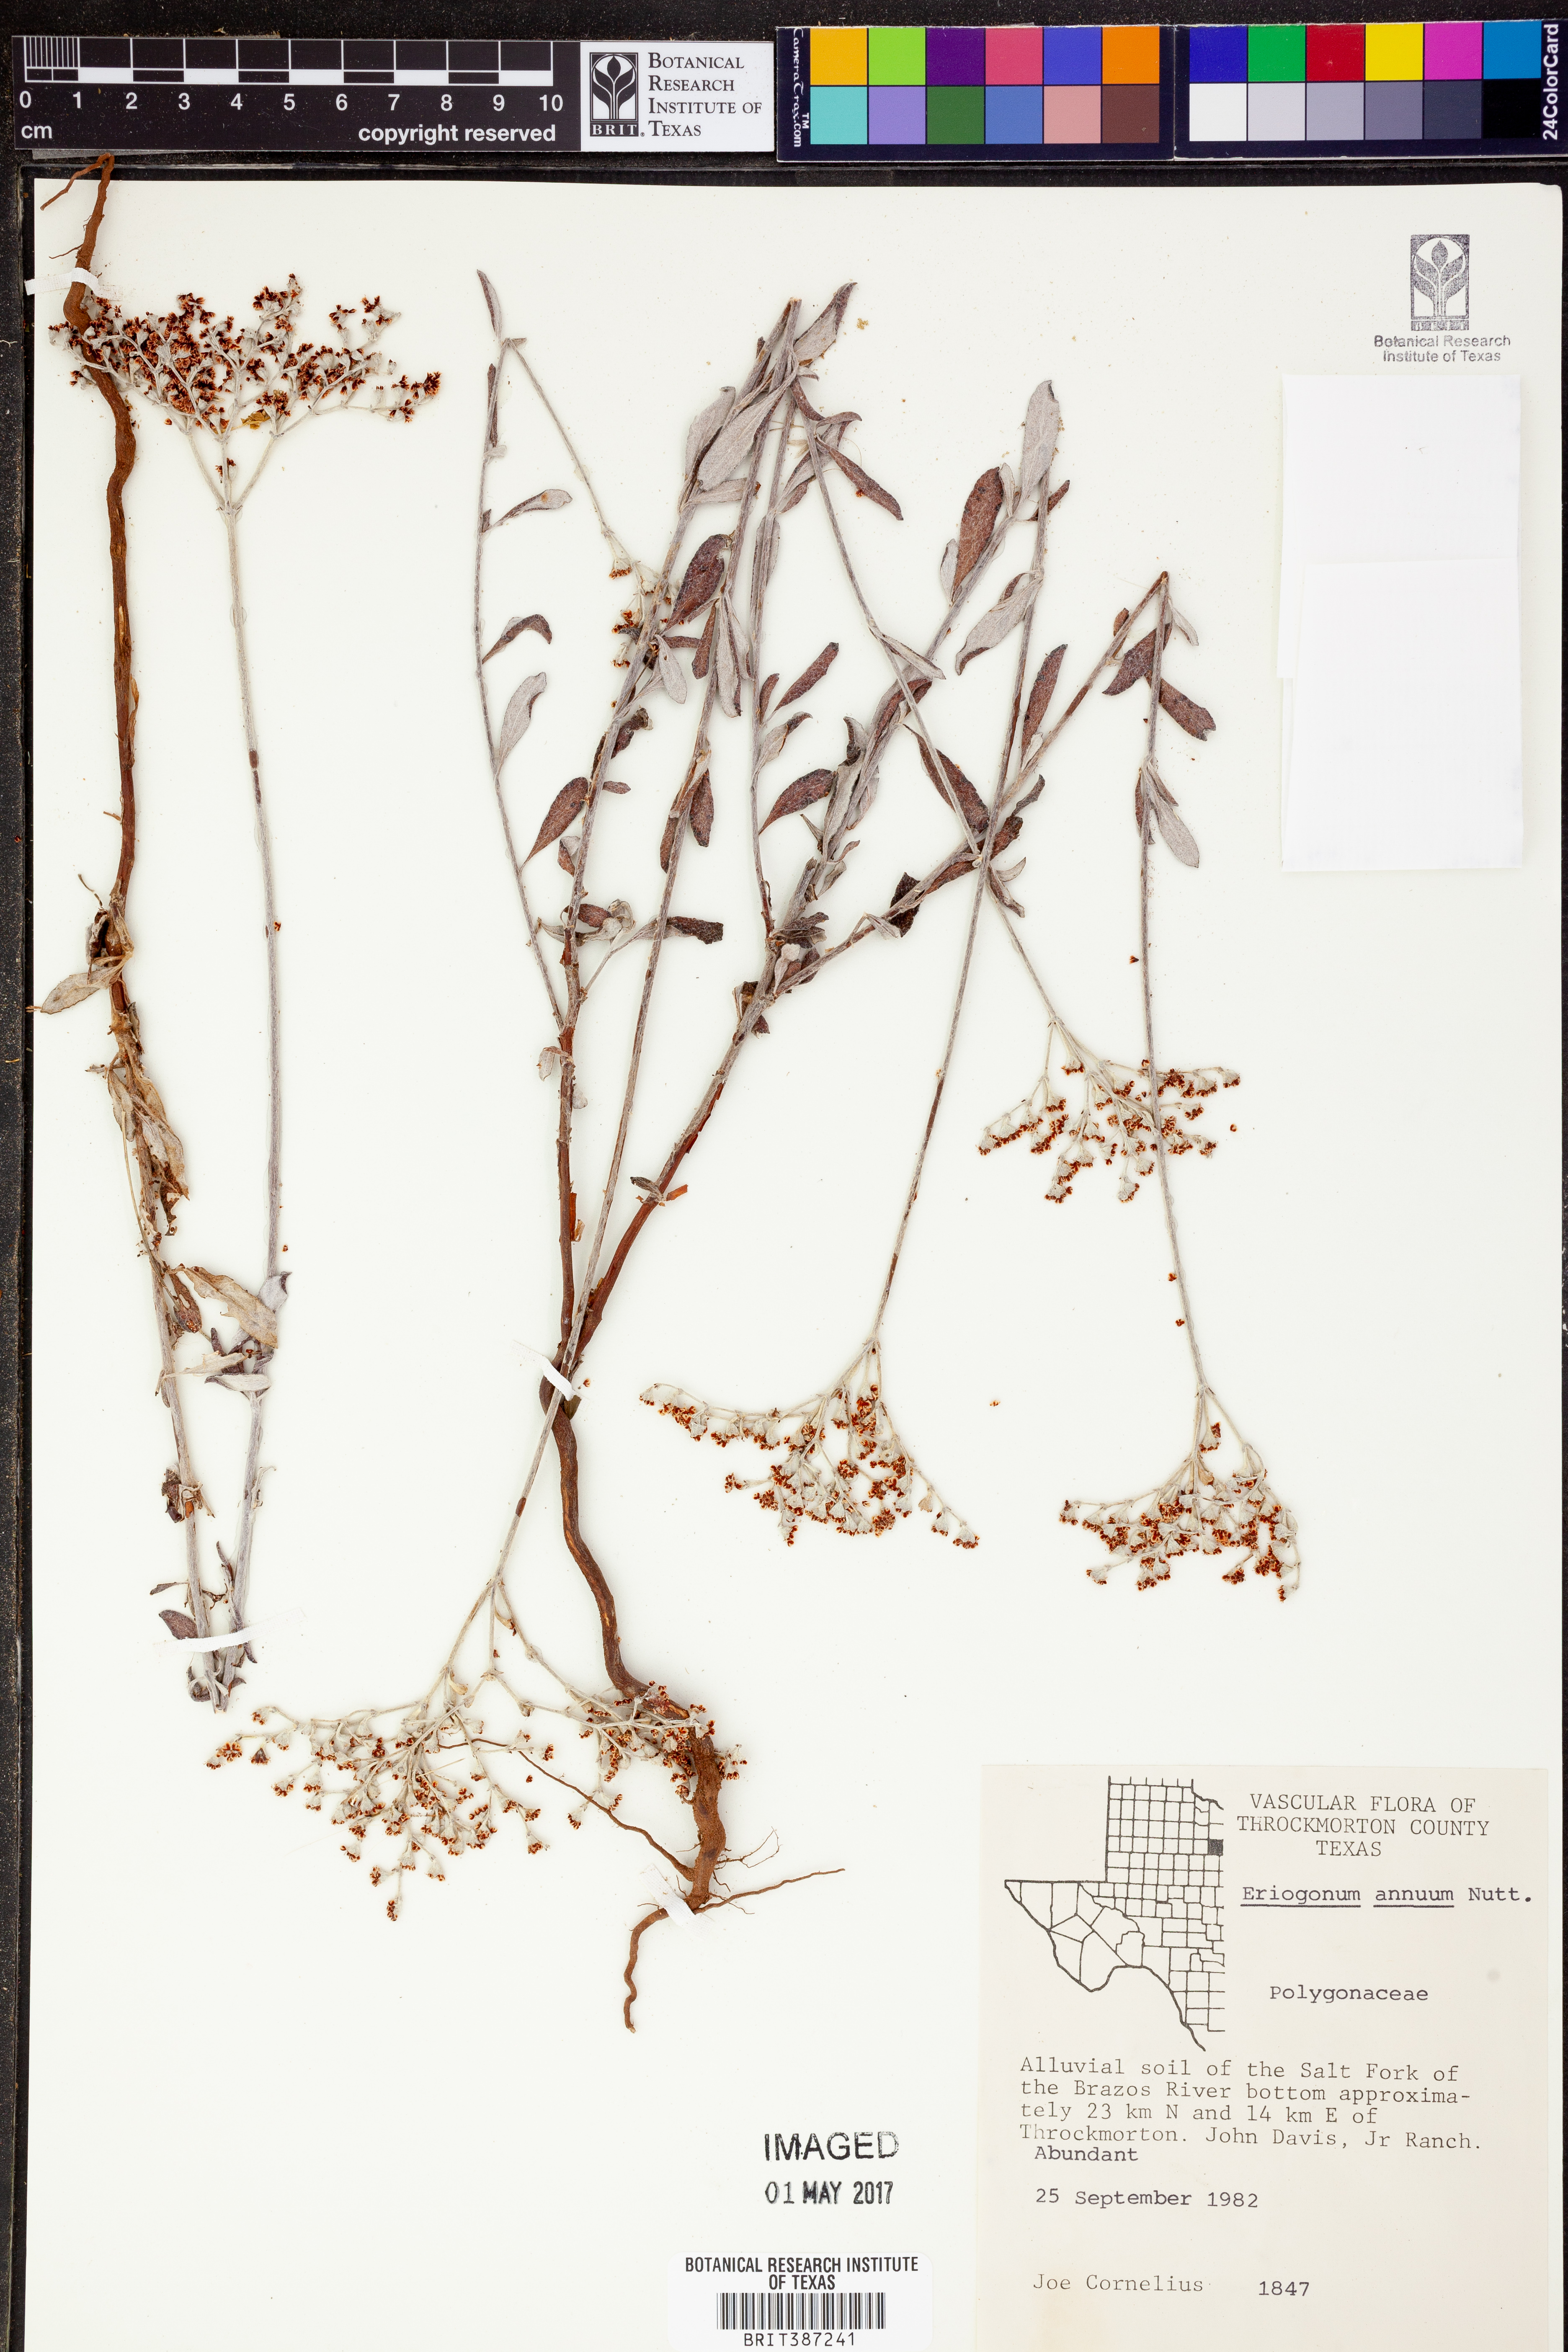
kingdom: Plantae
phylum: Tracheophyta
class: Magnoliopsida
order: Caryophyllales
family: Polygonaceae
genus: Eriogonum
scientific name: Eriogonum annuum
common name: Annual wild buckwheat
